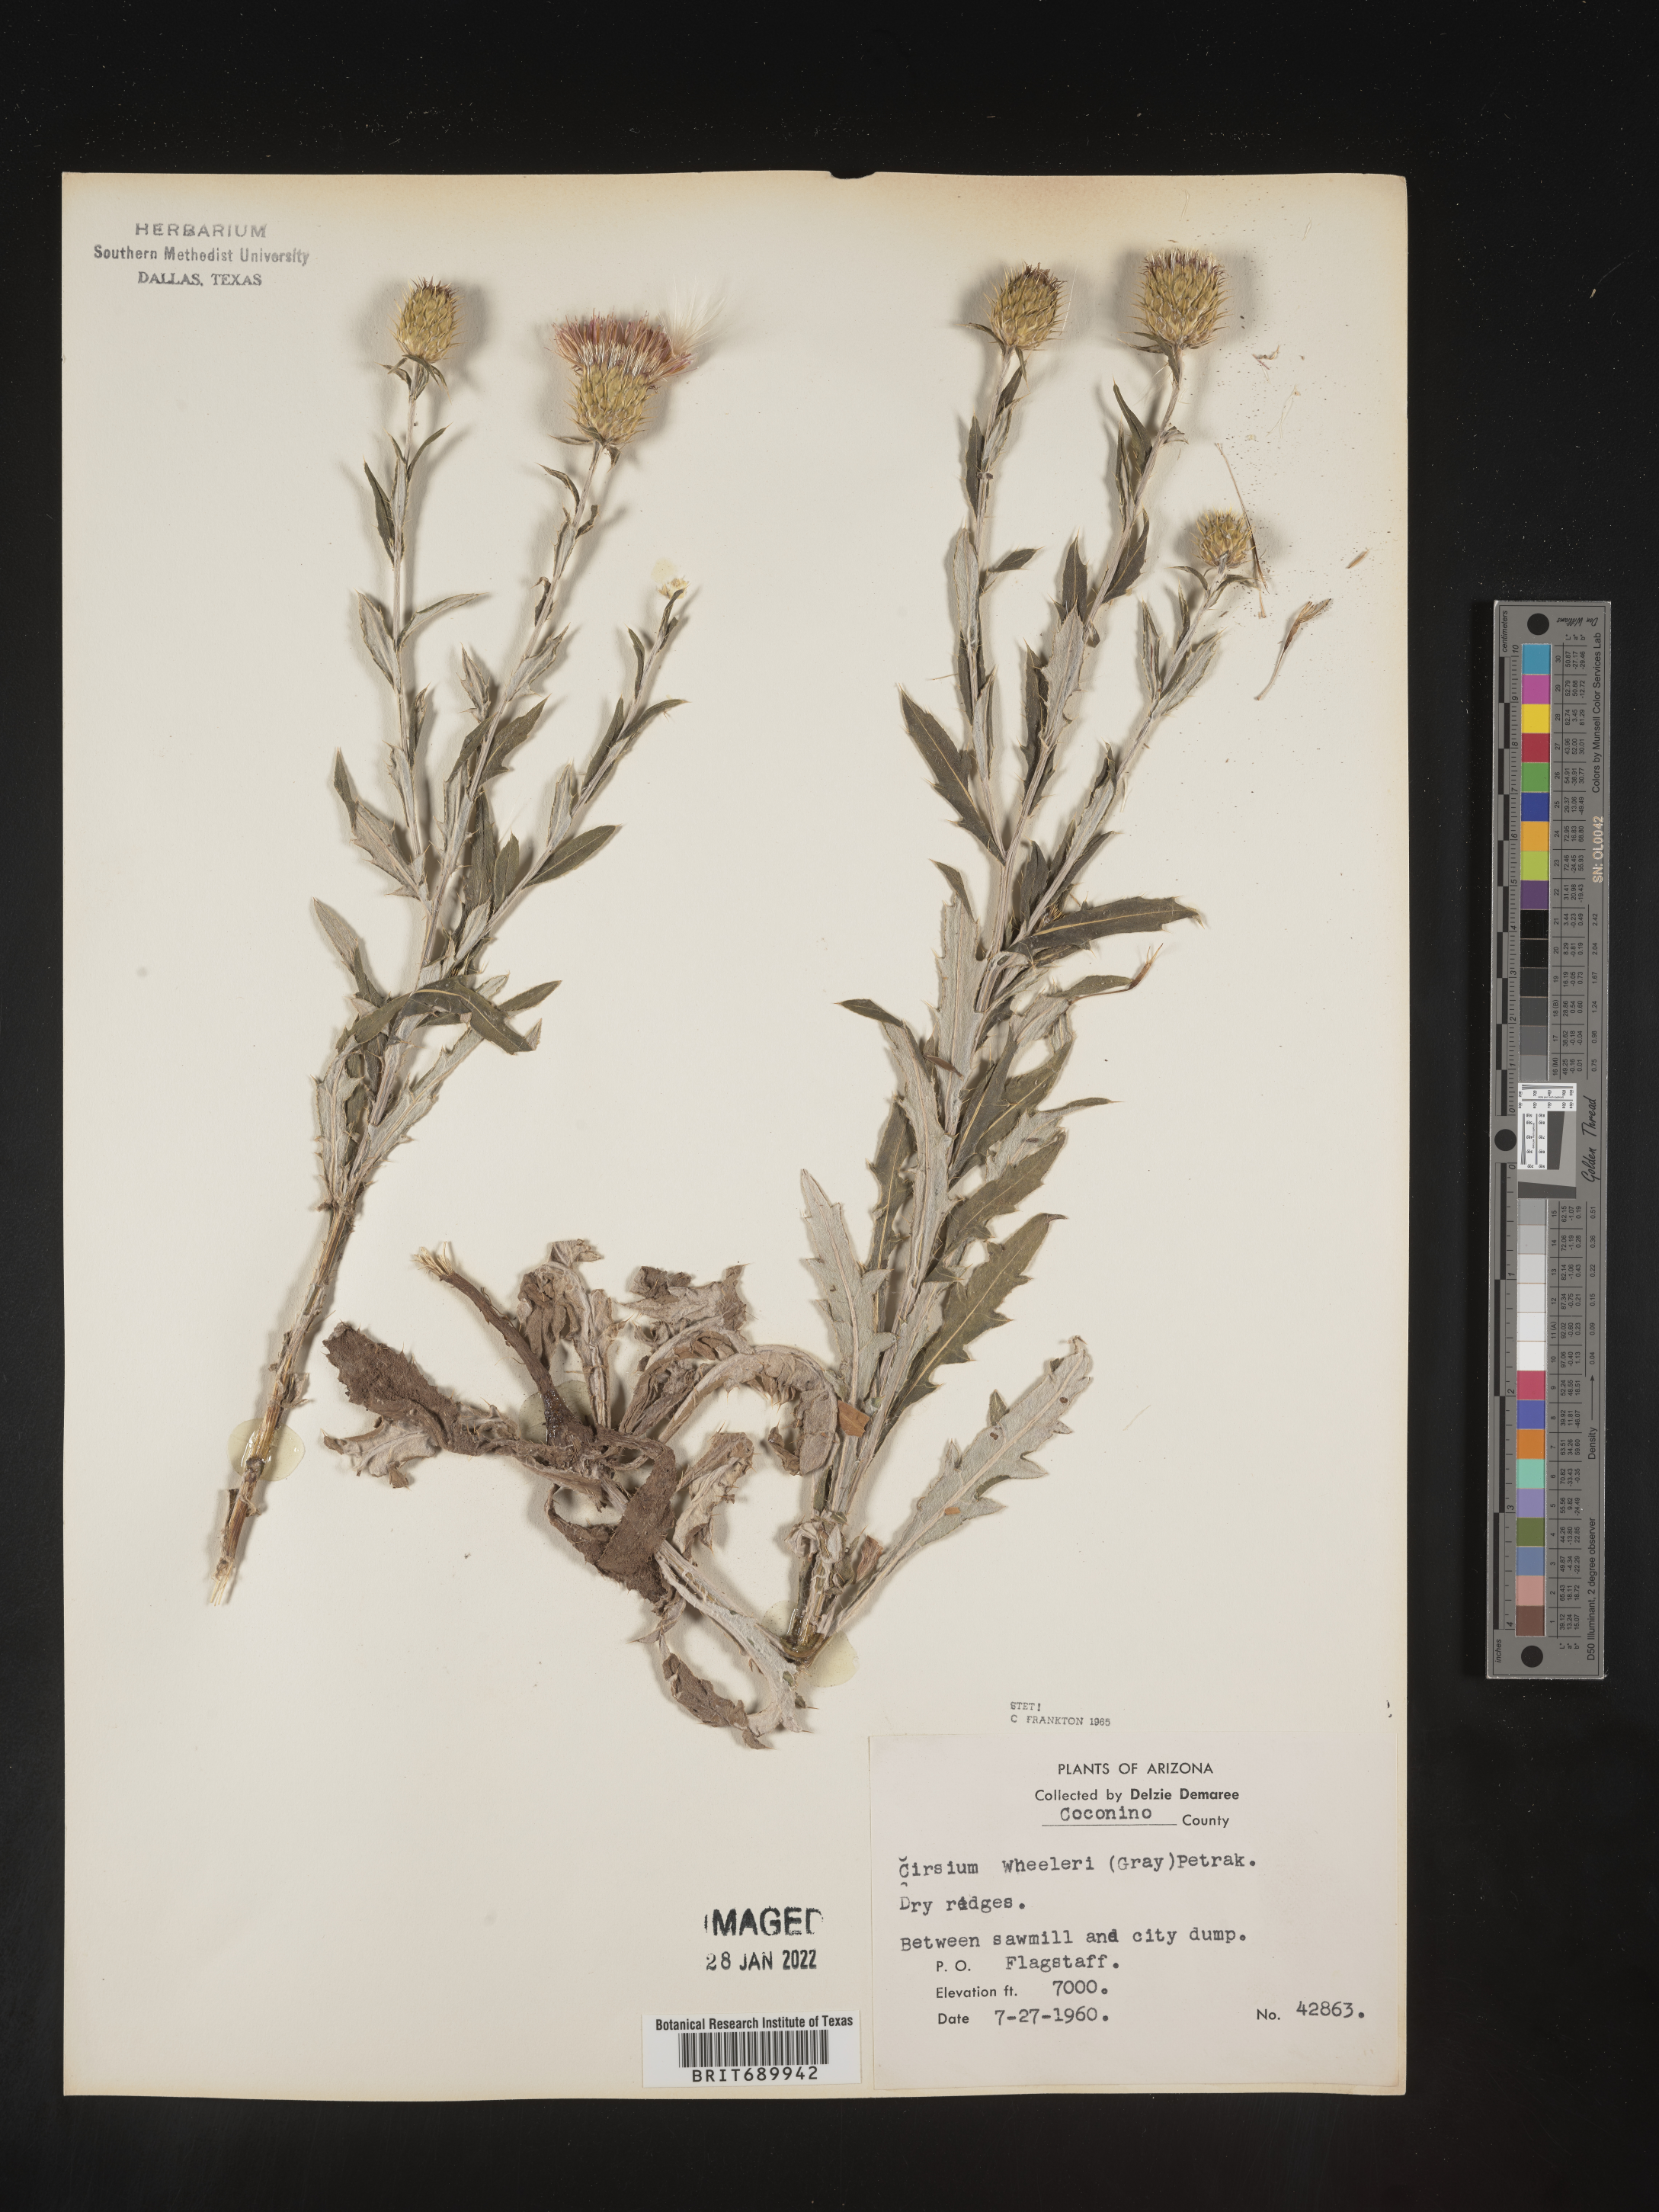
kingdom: Plantae
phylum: Tracheophyta
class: Magnoliopsida
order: Asterales
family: Asteraceae
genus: Cirsium
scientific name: Cirsium wheeleri
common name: Wheeler's thistle
